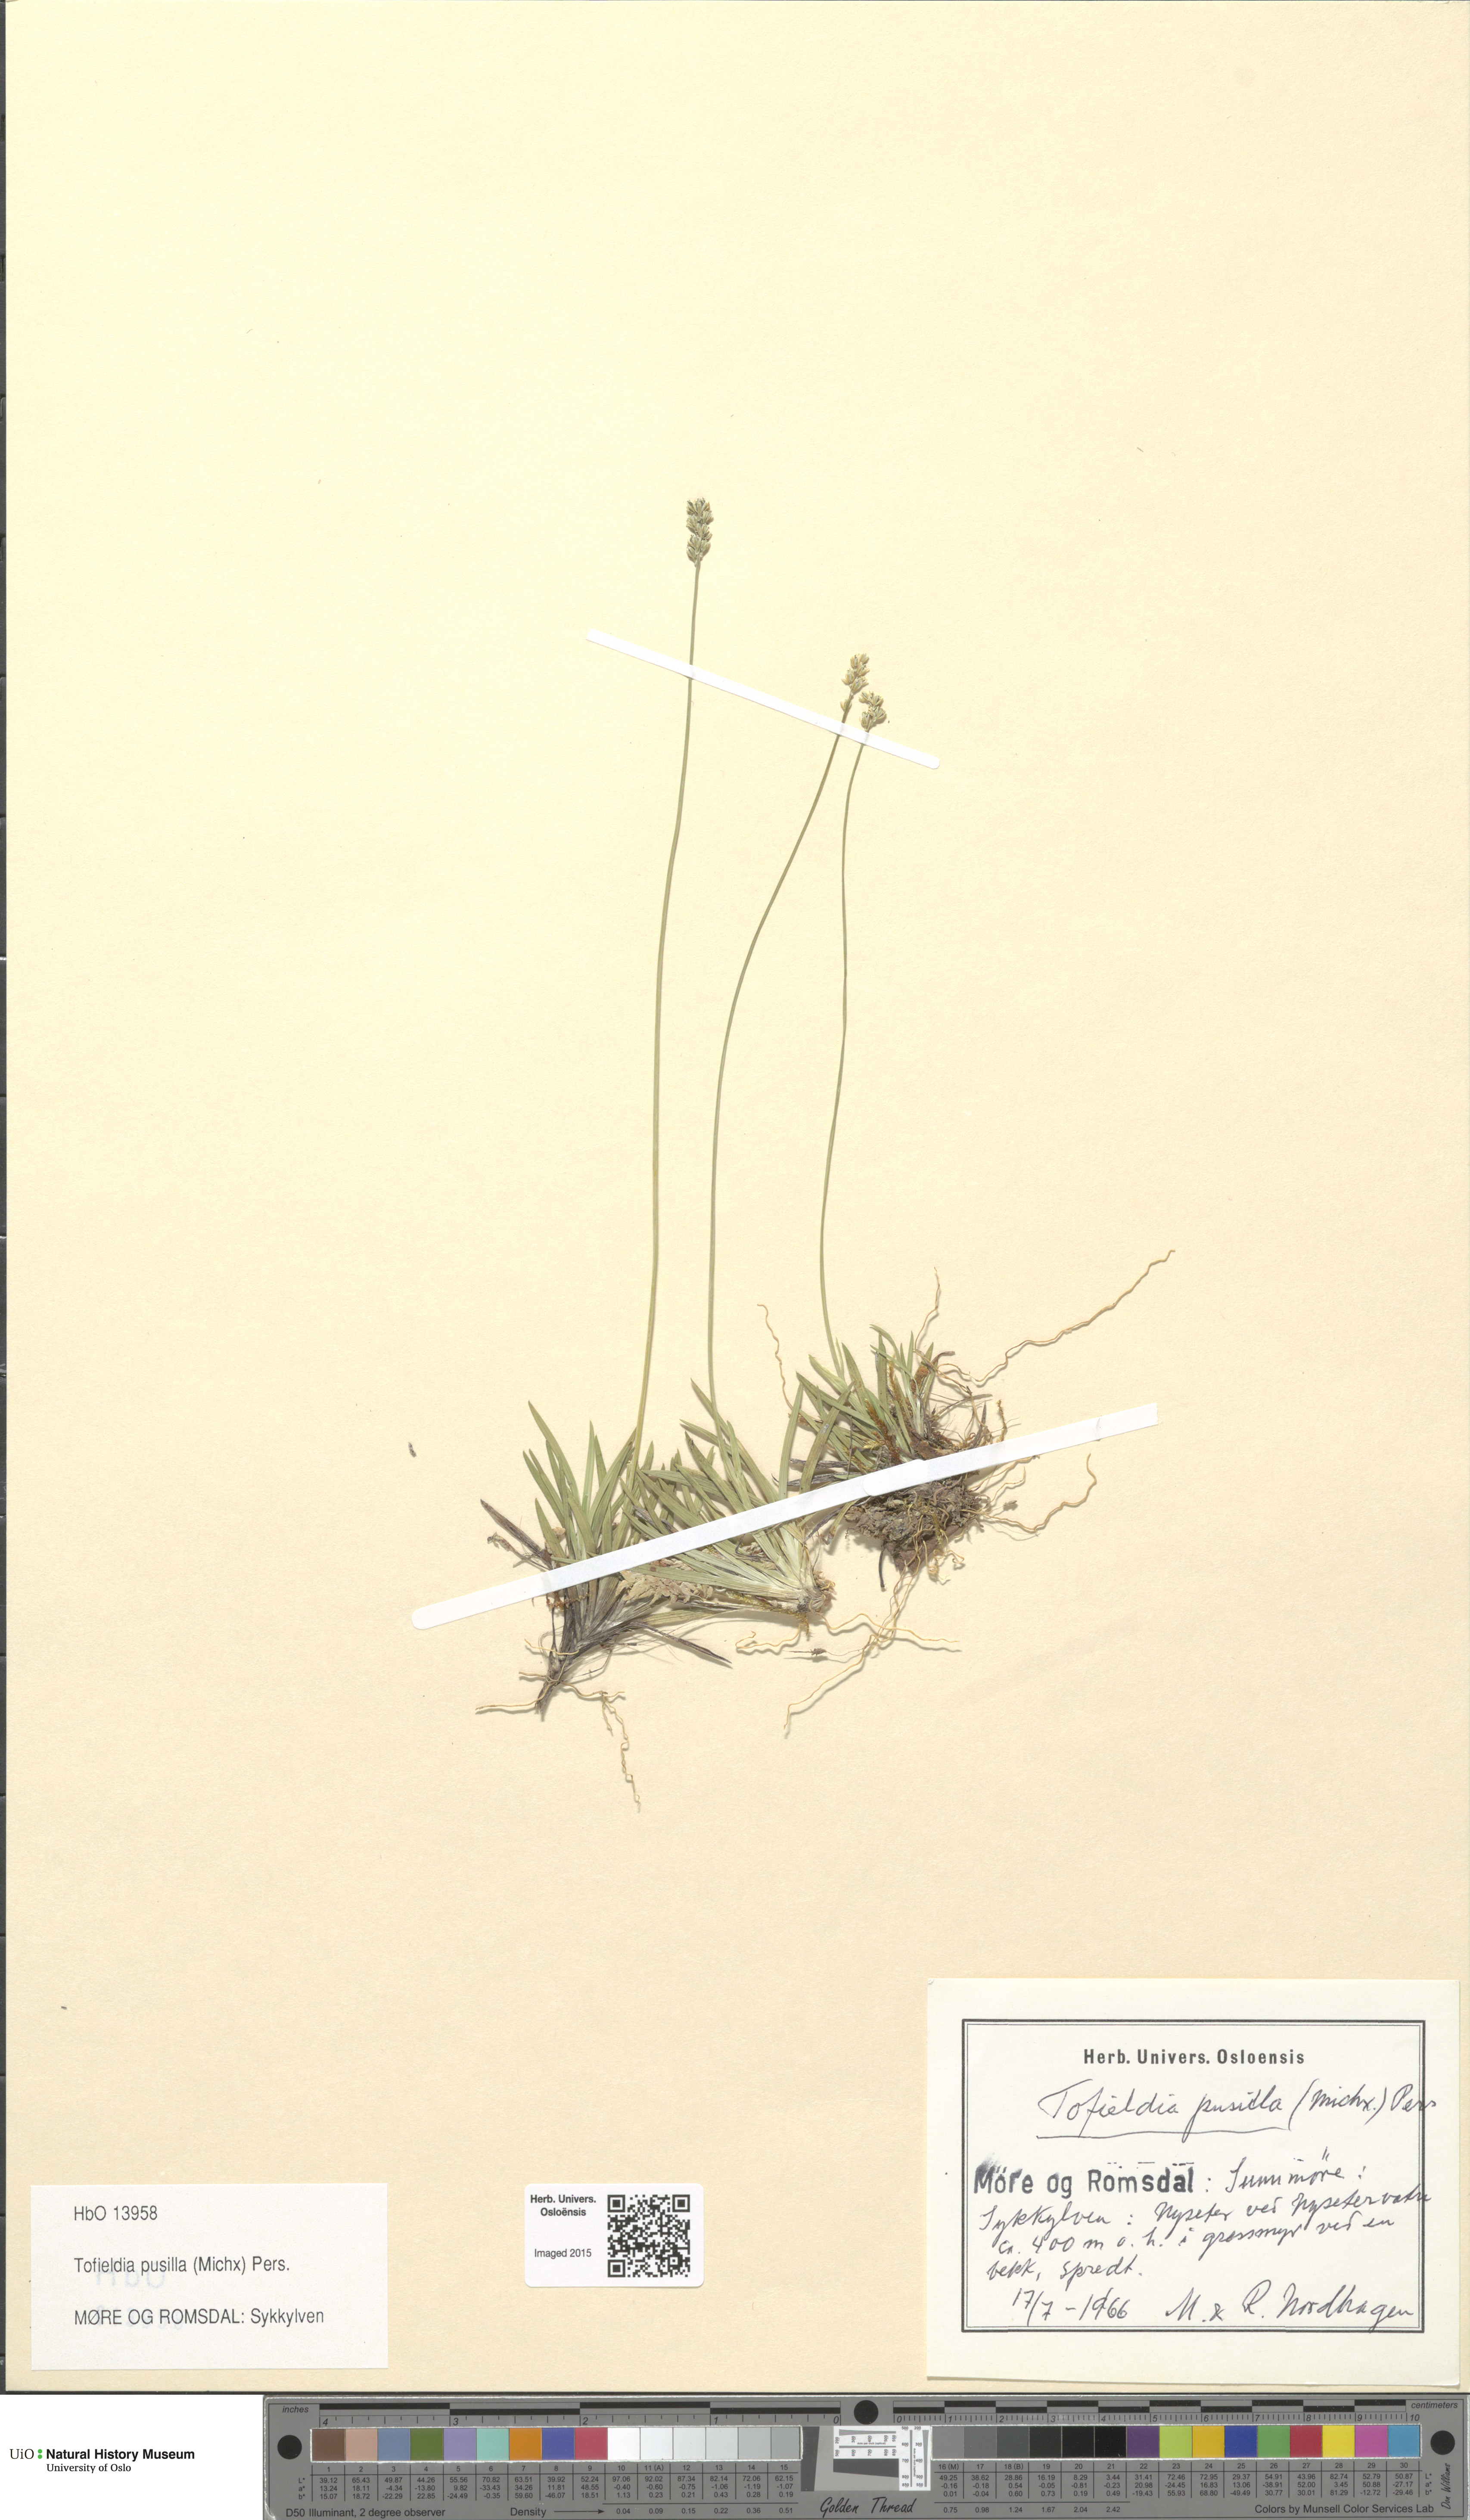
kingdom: Plantae
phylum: Tracheophyta
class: Liliopsida
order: Alismatales
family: Tofieldiaceae
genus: Tofieldia
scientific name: Tofieldia pusilla
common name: Scottish false asphodel
